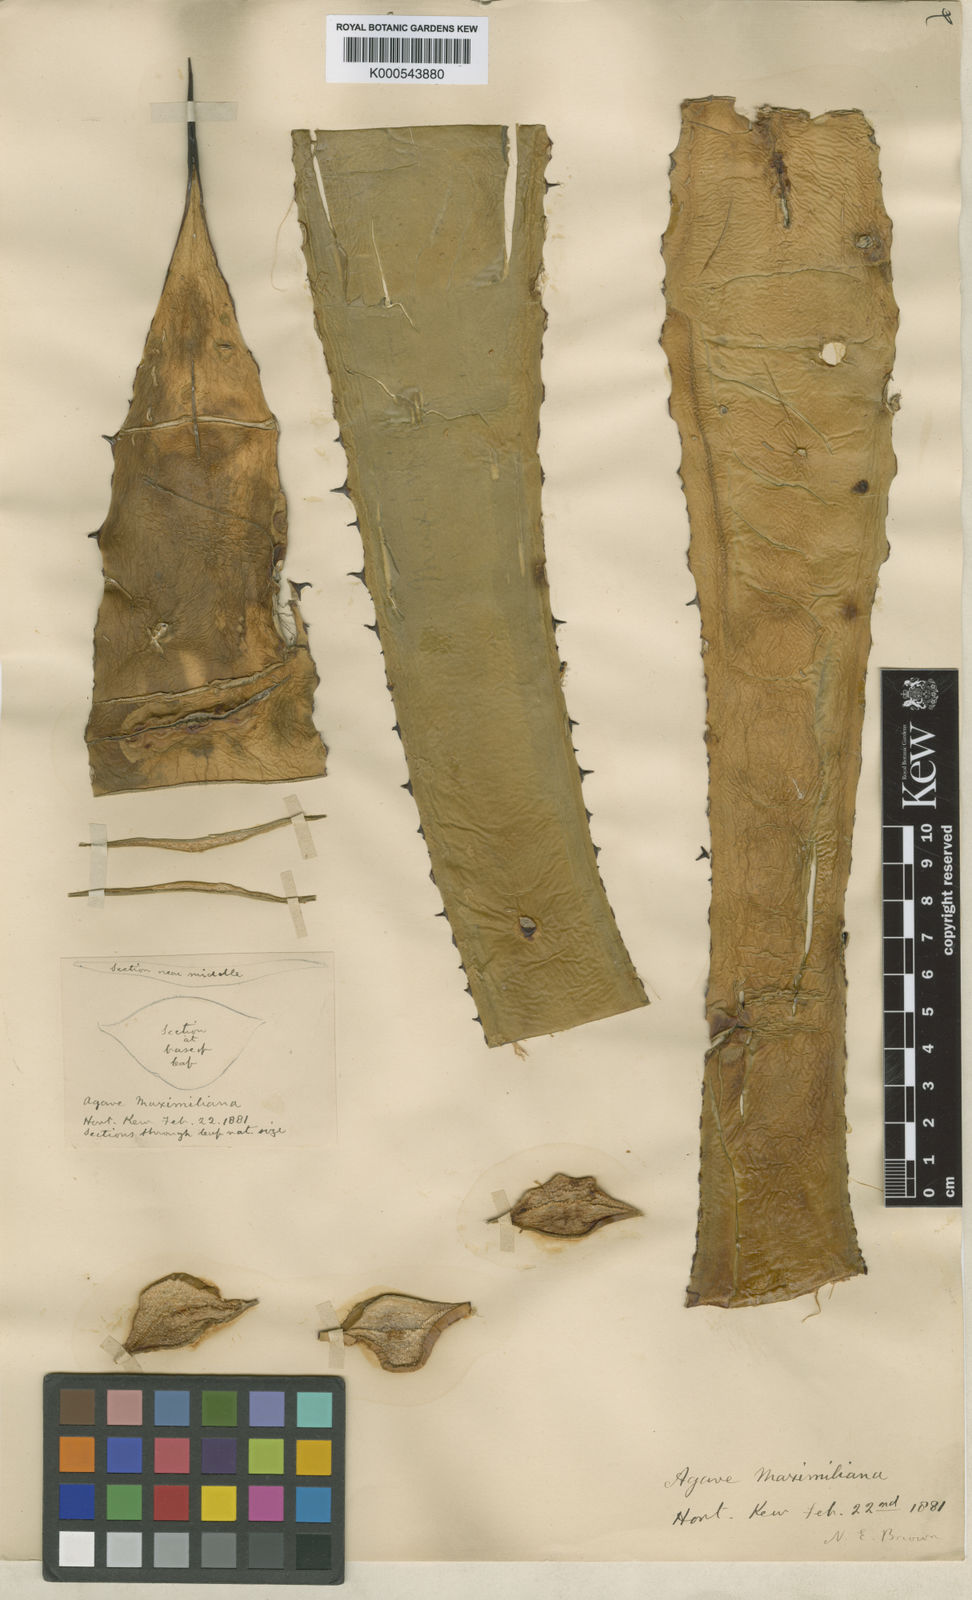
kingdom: Plantae
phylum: Tracheophyta
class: Liliopsida
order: Asparagales
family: Asparagaceae
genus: Agave
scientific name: Agave maximiliana
